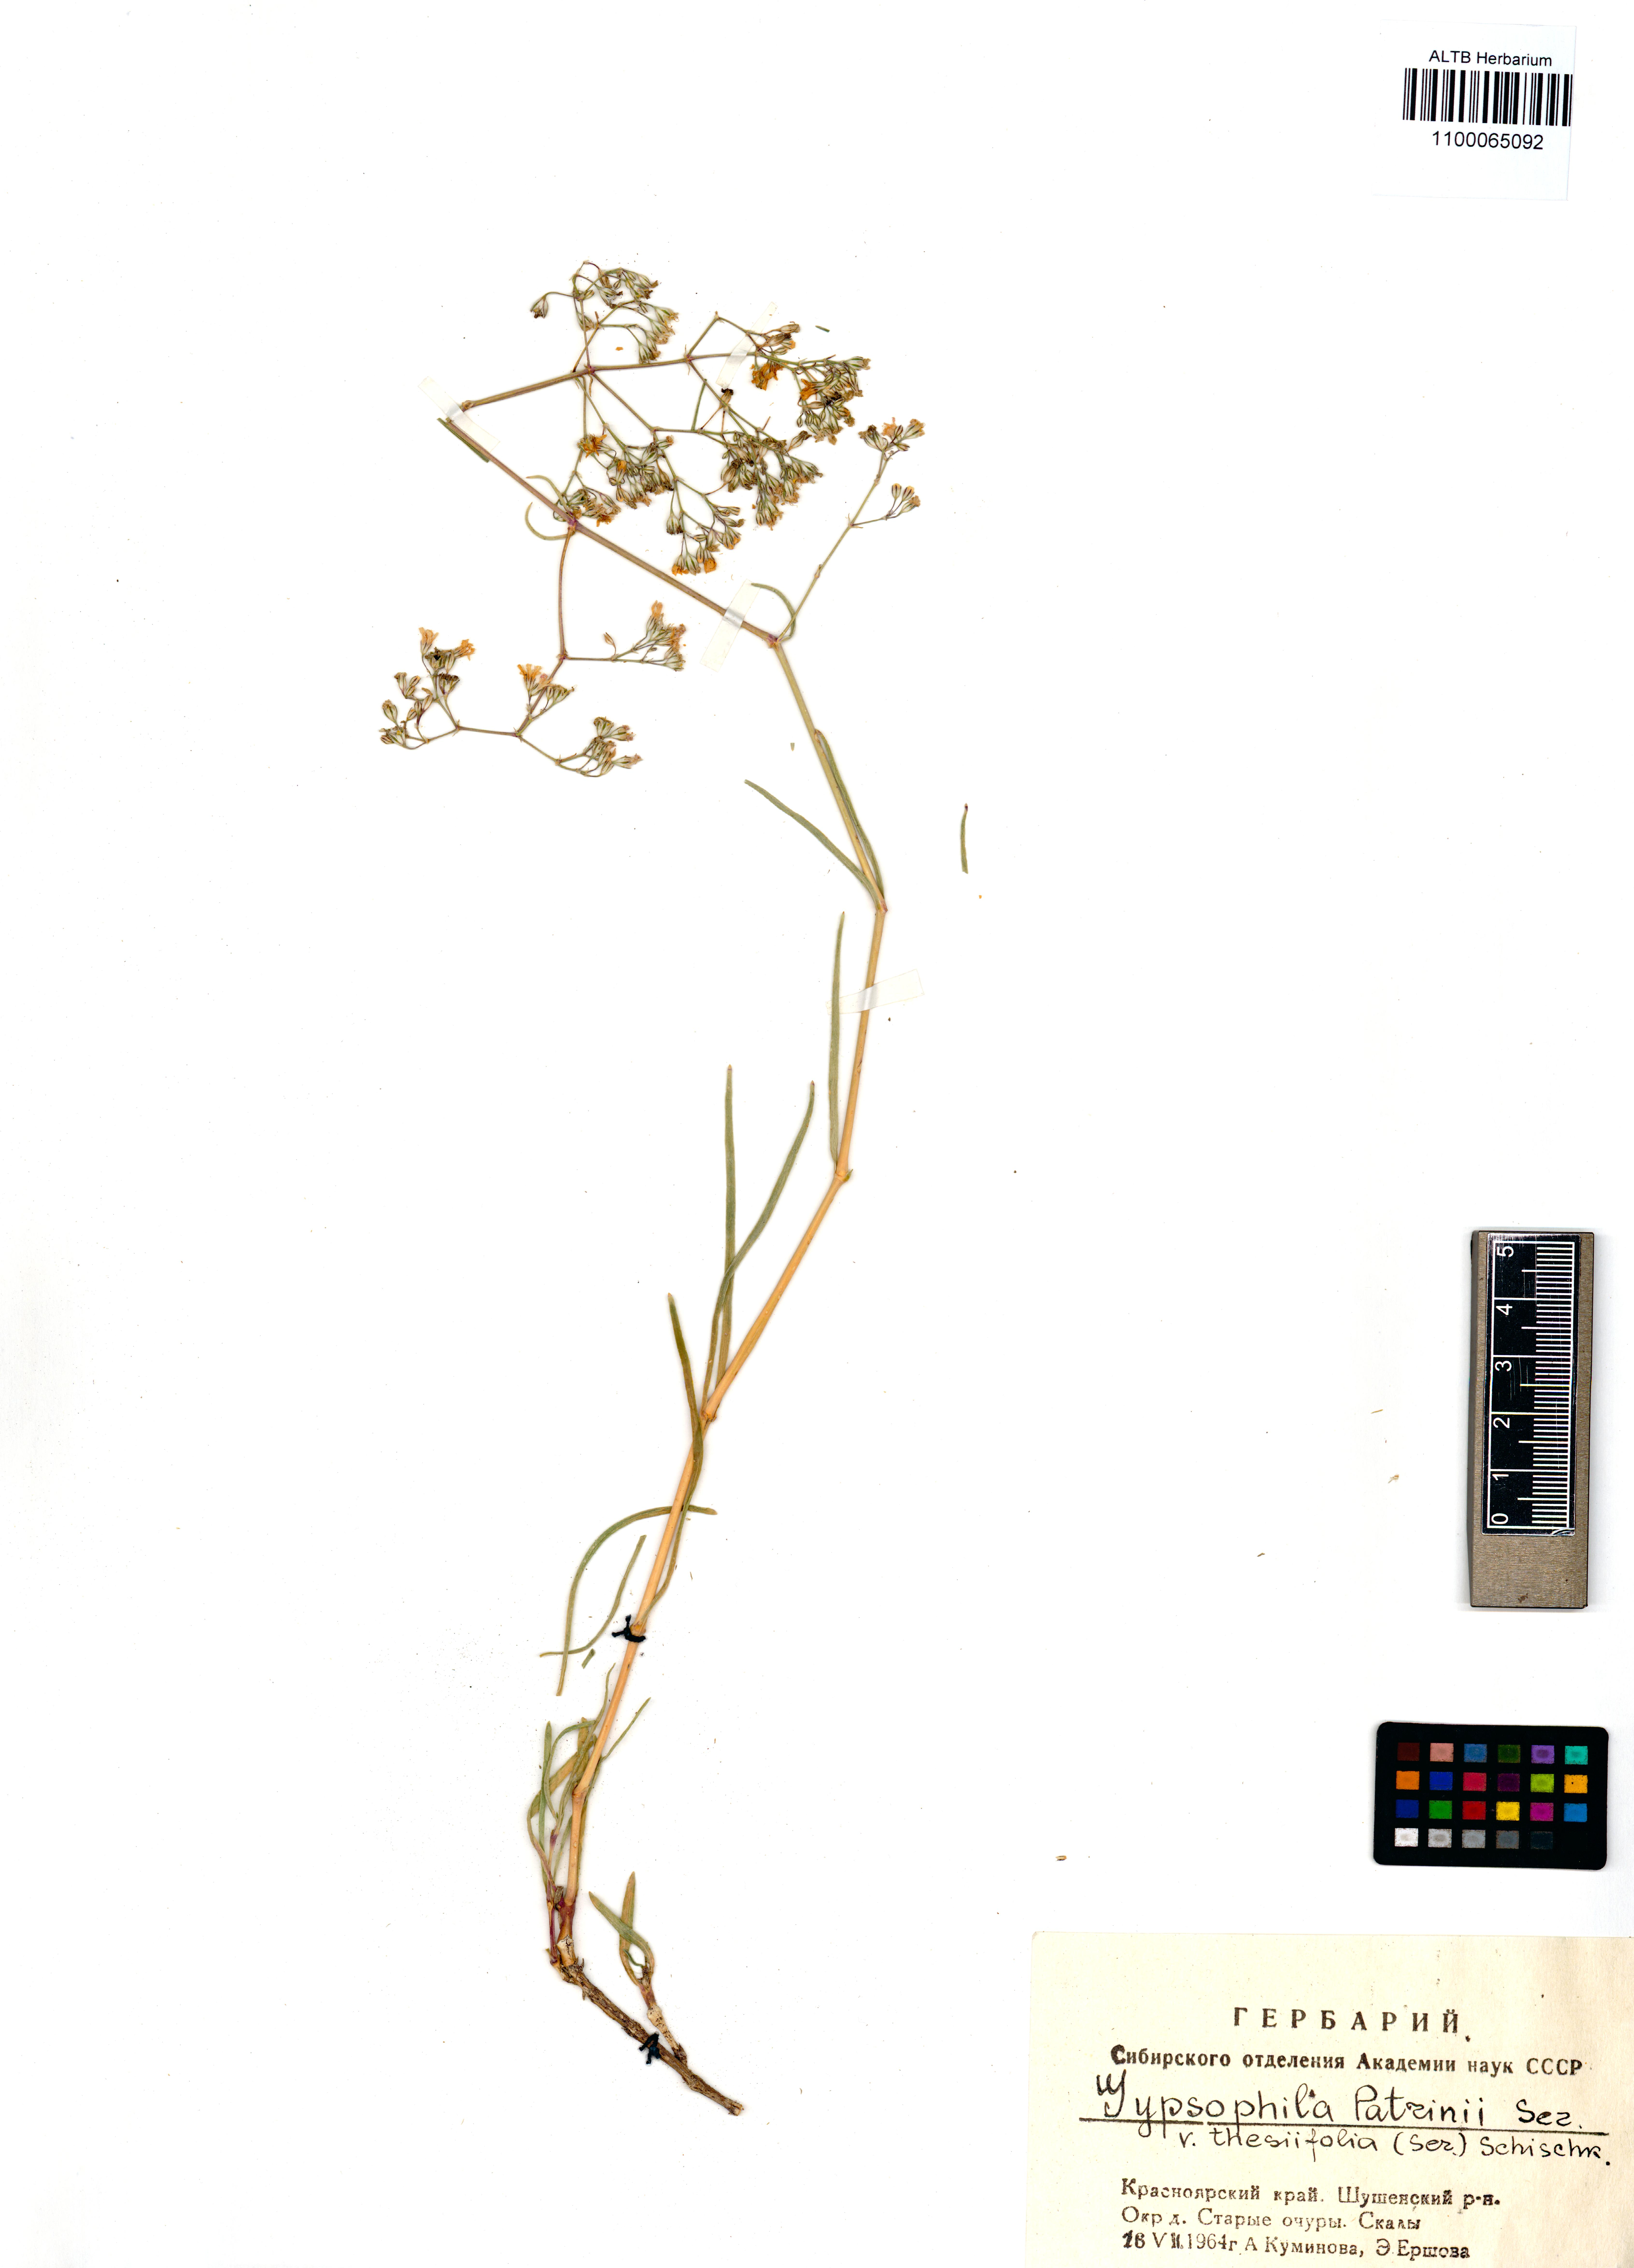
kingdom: Plantae
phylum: Tracheophyta
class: Magnoliopsida
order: Caryophyllales
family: Caryophyllaceae
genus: Gypsophila
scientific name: Gypsophila patrinii
